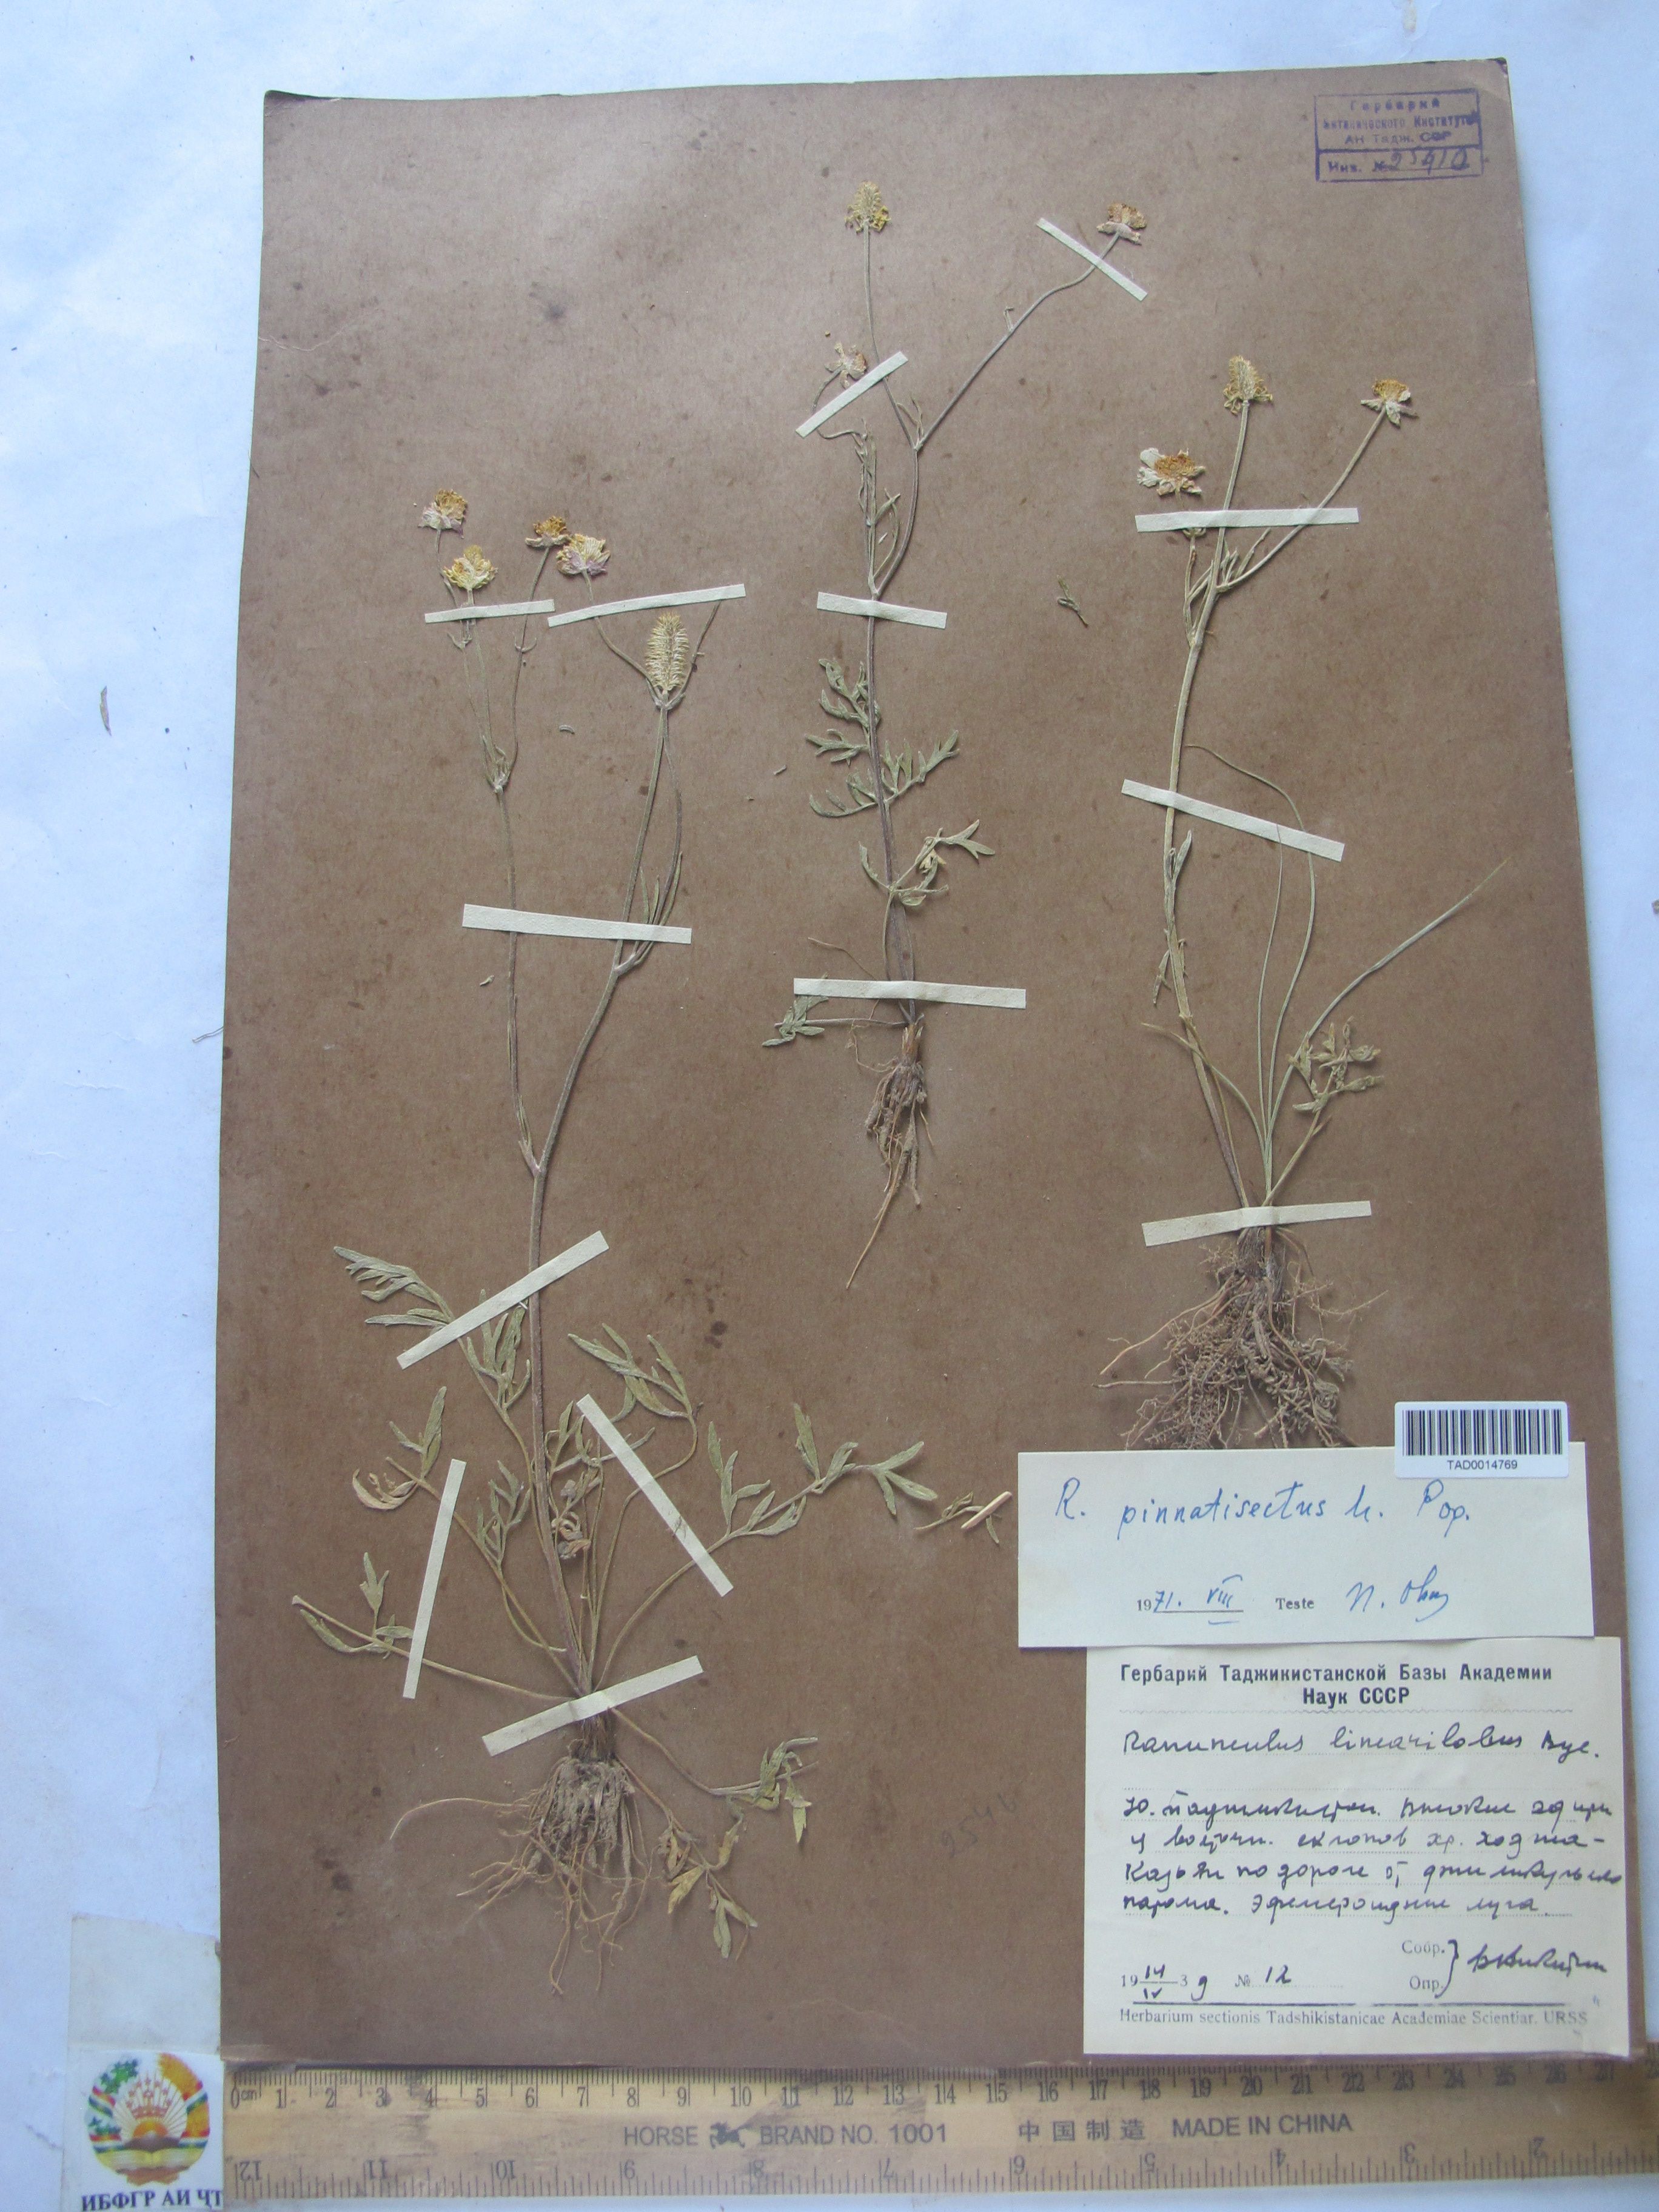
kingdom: Plantae
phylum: Tracheophyta
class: Magnoliopsida
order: Ranunculales
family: Ranunculaceae
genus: Ranunculus
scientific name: Ranunculus linearilobus
